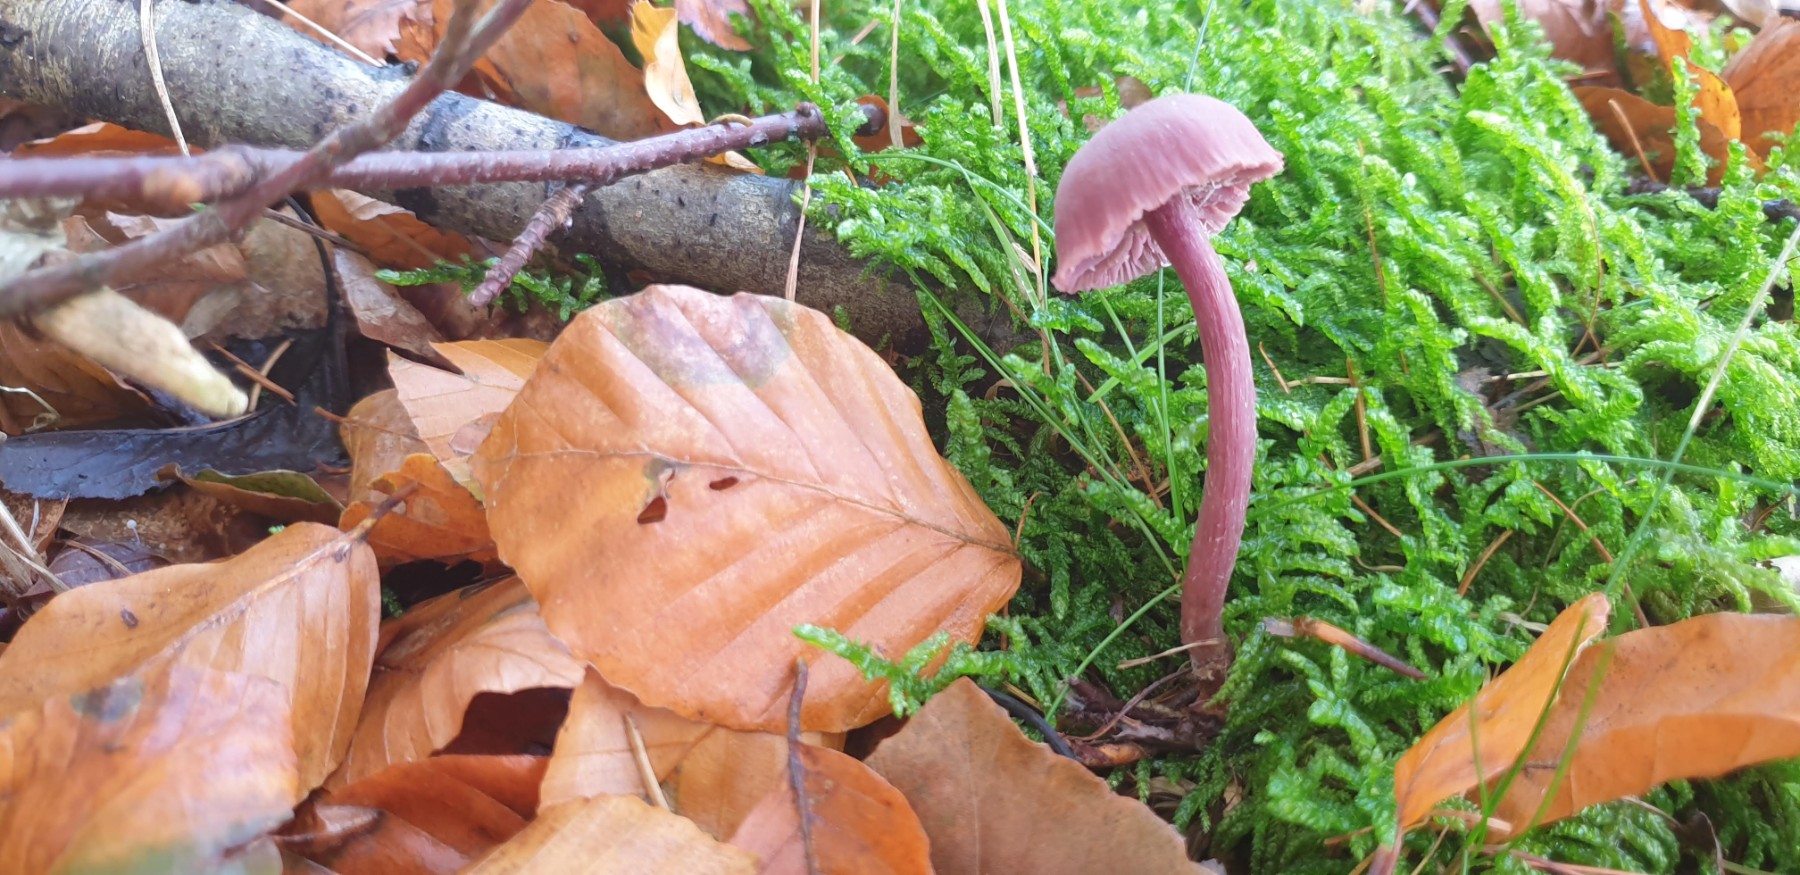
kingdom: Fungi
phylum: Basidiomycota
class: Agaricomycetes
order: Agaricales
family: Hydnangiaceae
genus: Laccaria
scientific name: Laccaria amethystina
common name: violet ametysthat
